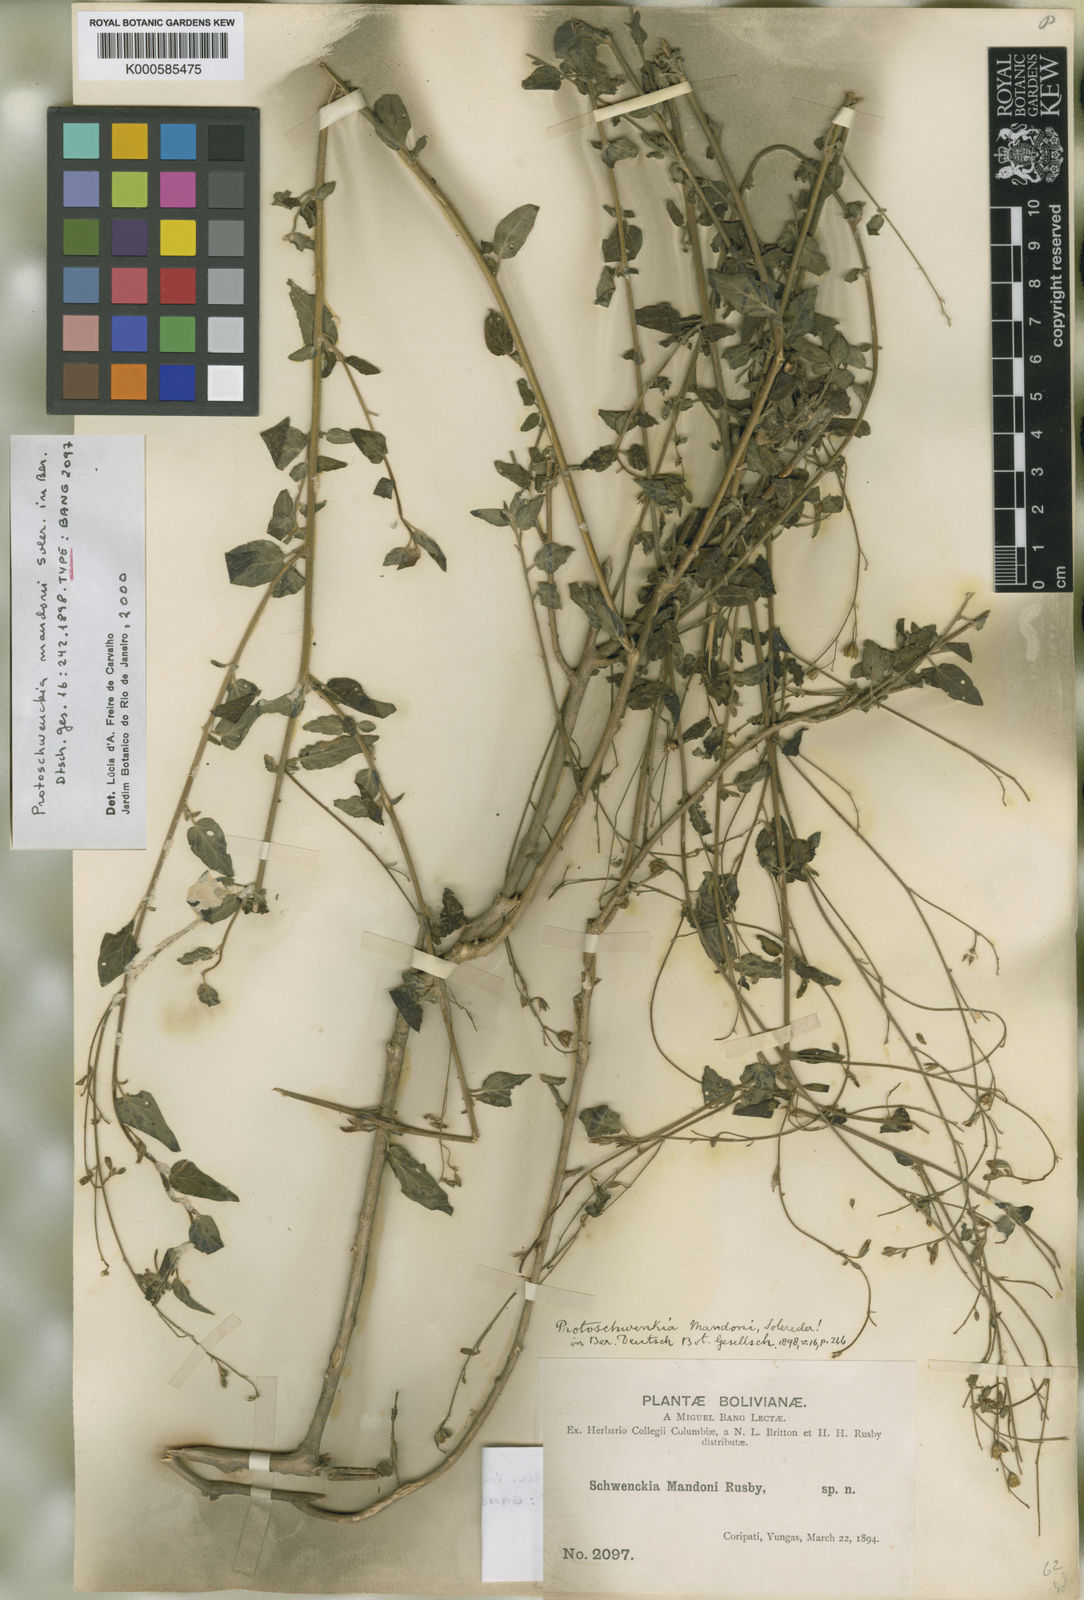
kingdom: Plantae
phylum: Tracheophyta
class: Magnoliopsida
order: Solanales
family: Solanaceae
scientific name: Solanaceae
